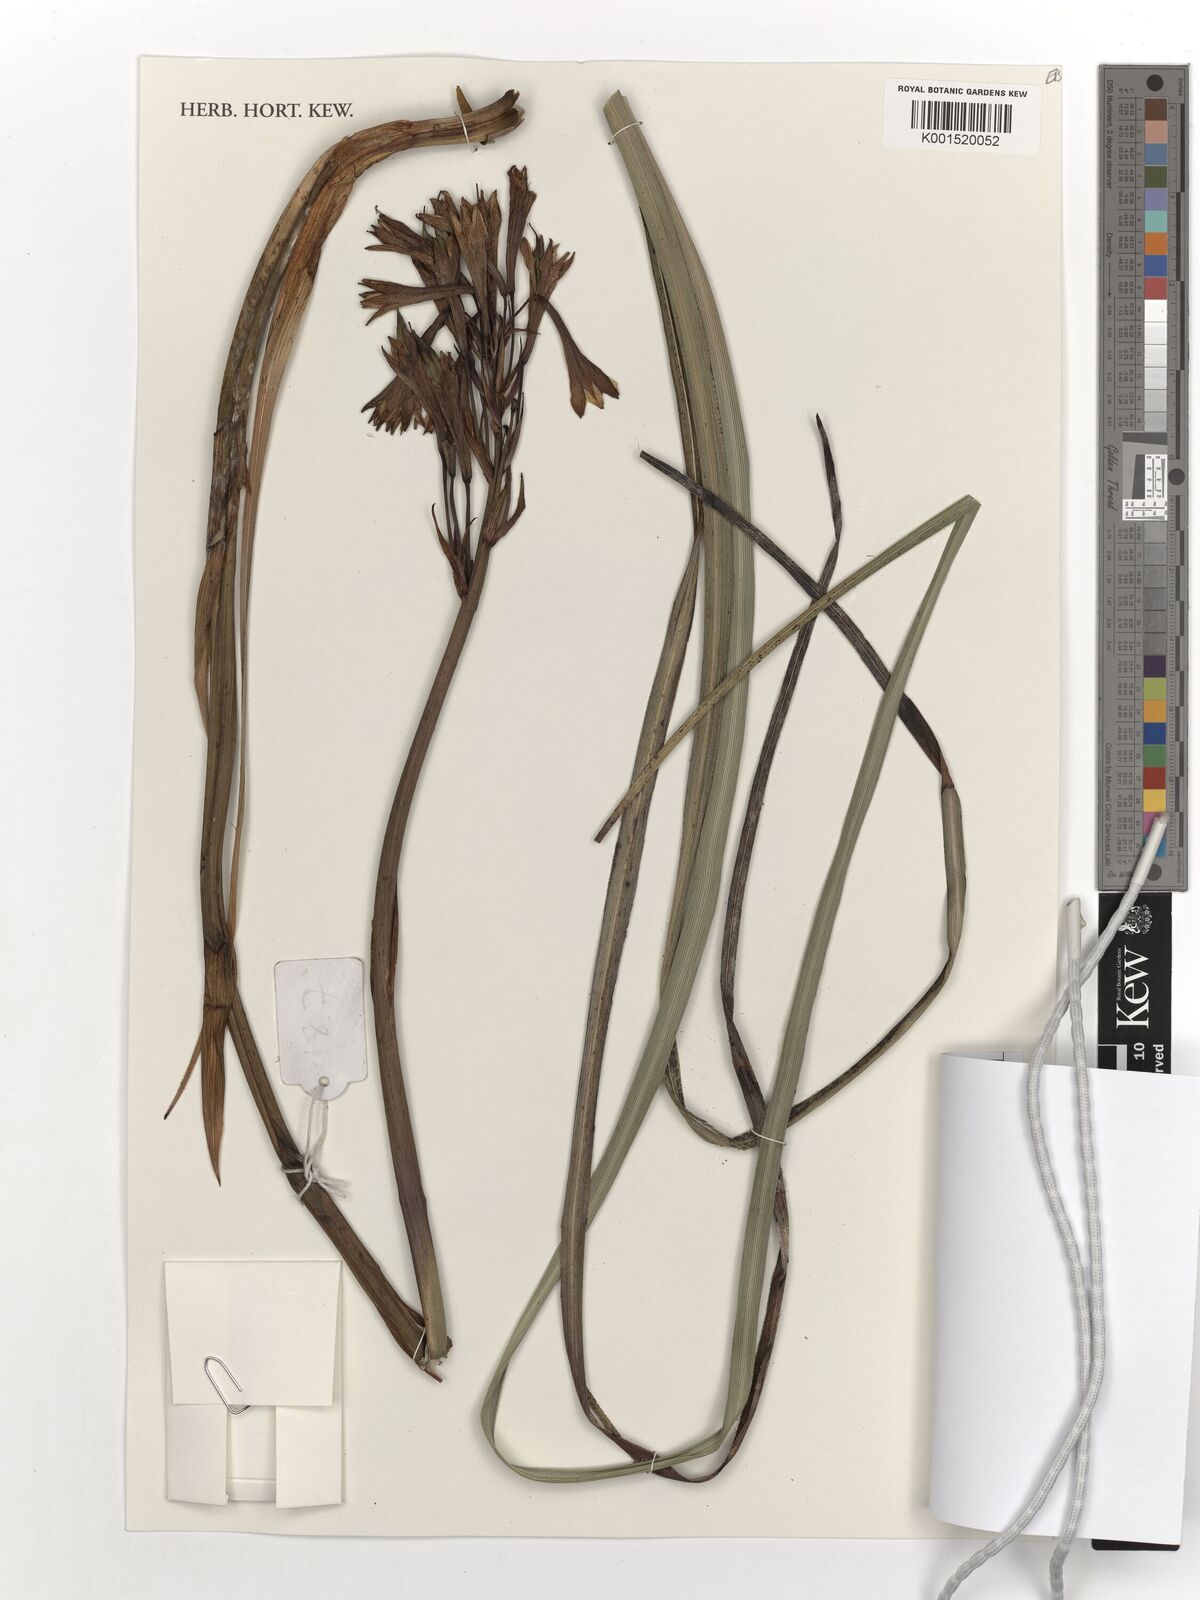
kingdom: Plantae
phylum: Tracheophyta
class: Liliopsida
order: Asparagales
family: Blandfordiaceae
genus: Blandfordia
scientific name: Blandfordia punicea
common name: Tasmanian christmas-bell
